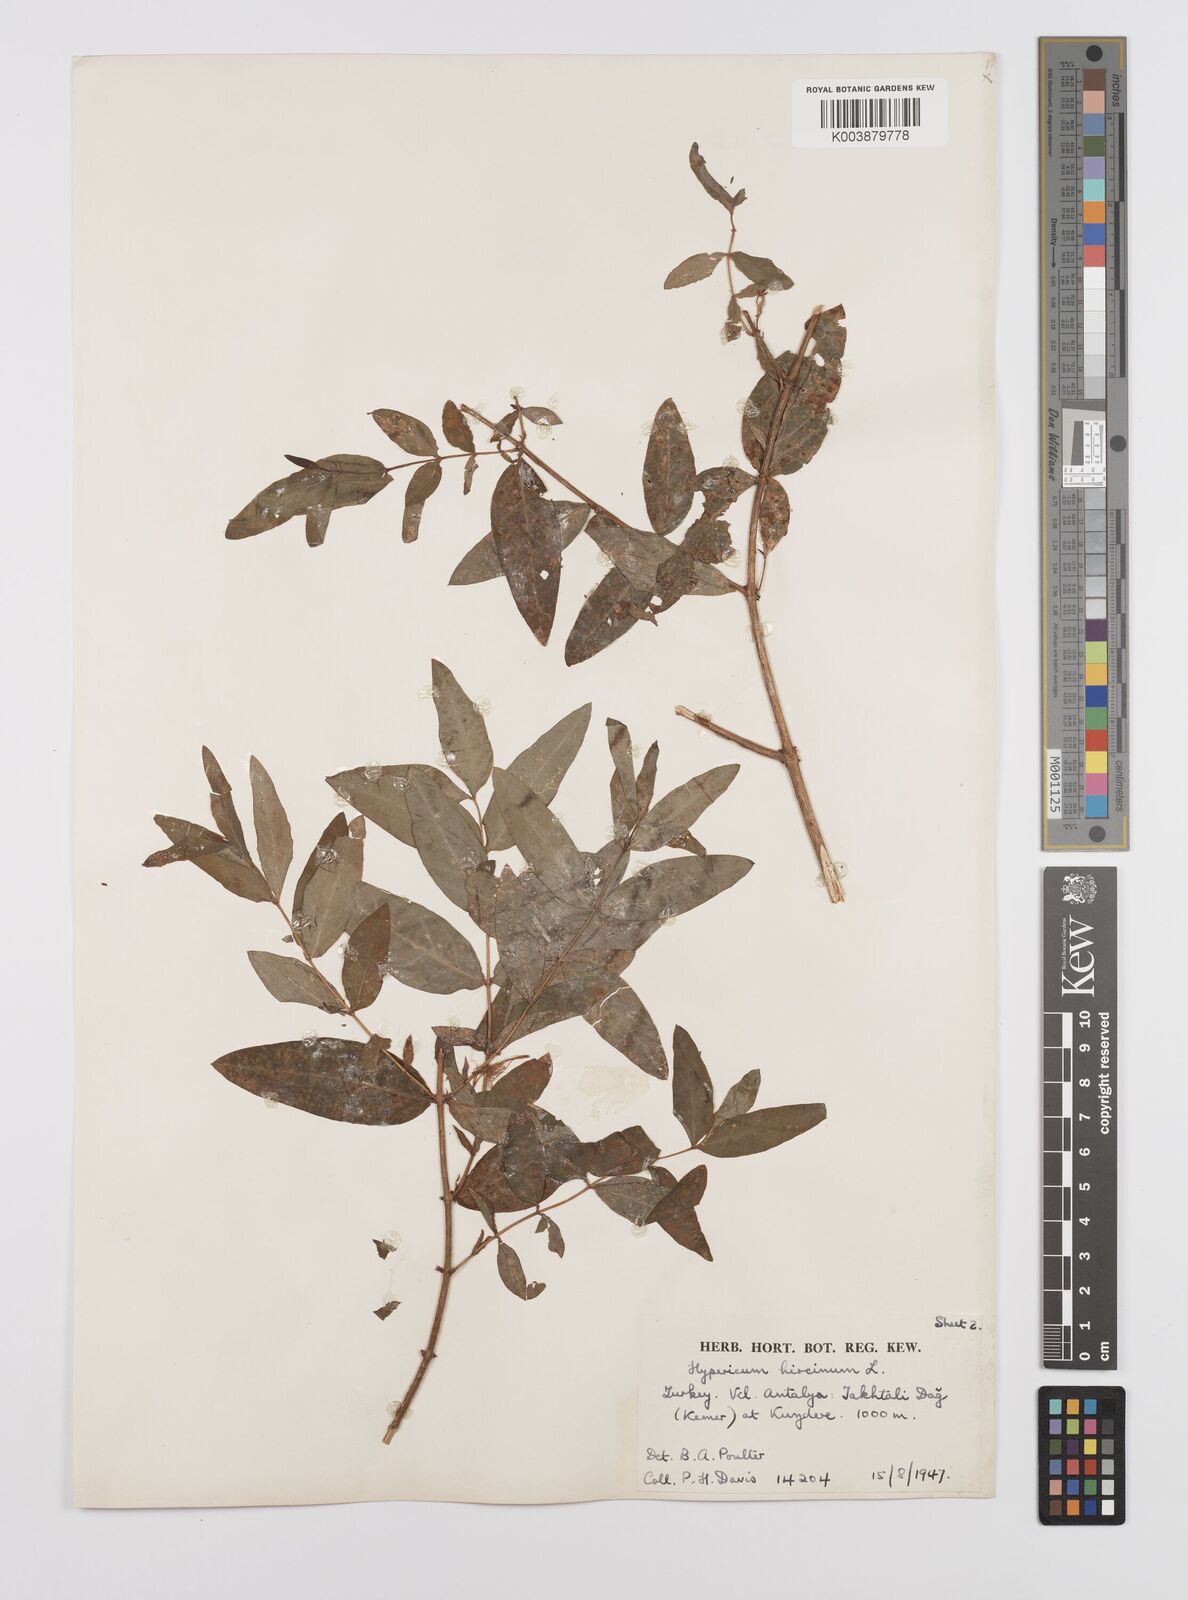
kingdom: Plantae
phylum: Tracheophyta
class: Magnoliopsida
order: Malpighiales
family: Hypericaceae
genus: Hypericum
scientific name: Hypericum hircinum
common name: Stinking tutsan
